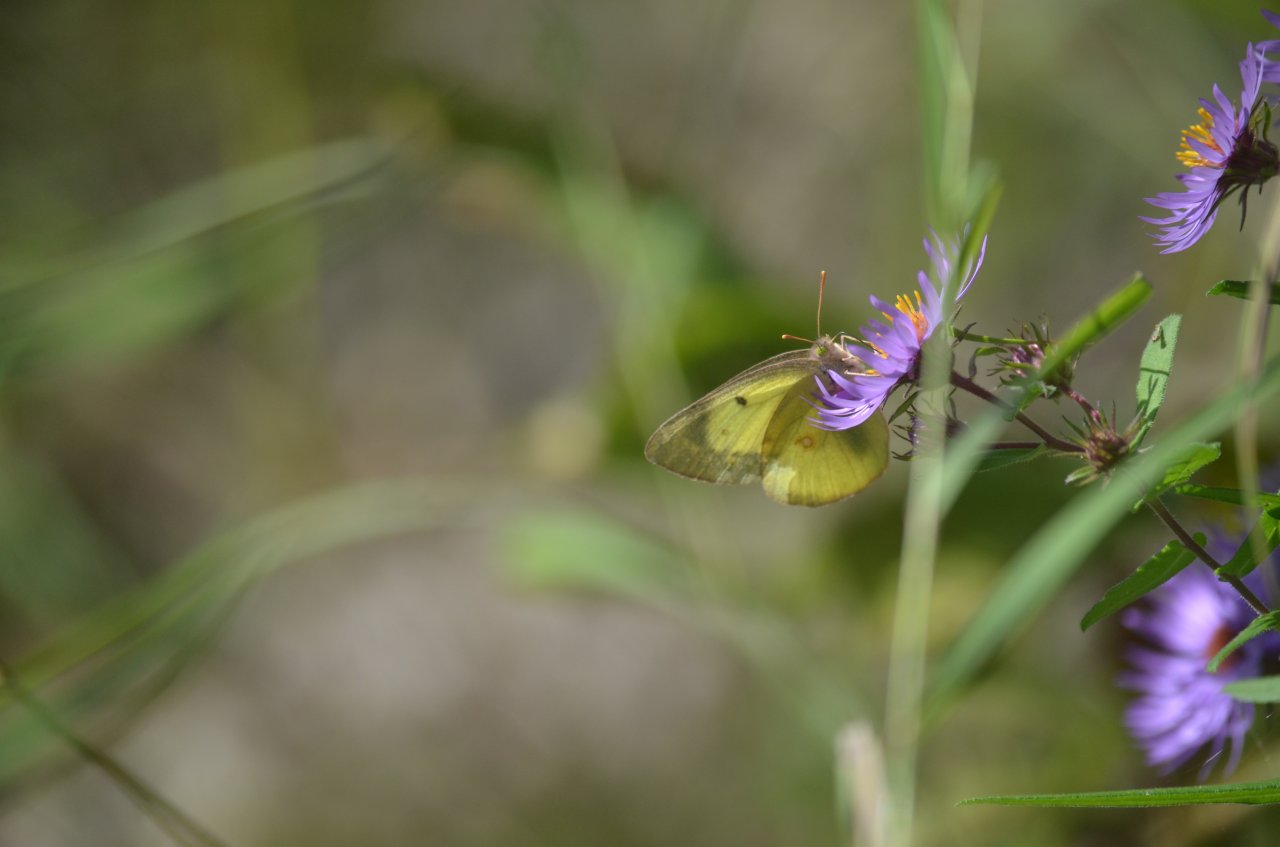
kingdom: Animalia
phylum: Arthropoda
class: Insecta
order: Lepidoptera
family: Pieridae
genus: Colias
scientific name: Colias philodice
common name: Clouded Sulphur
